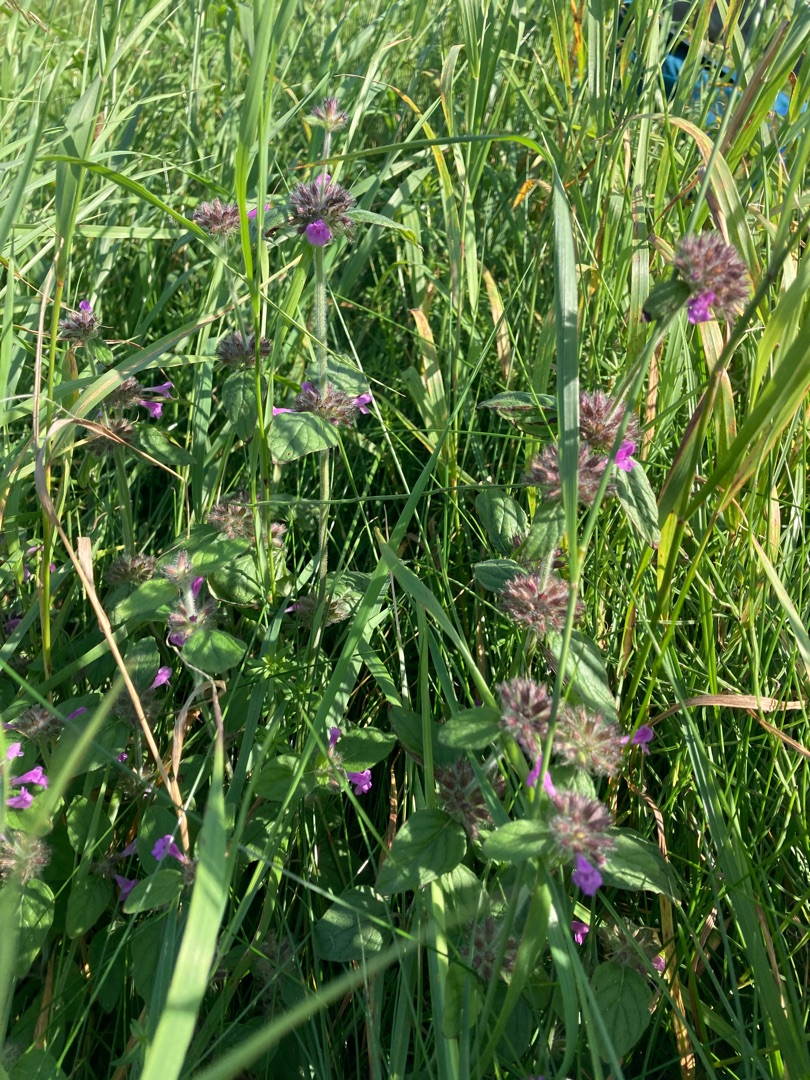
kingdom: Plantae
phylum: Tracheophyta
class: Magnoliopsida
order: Lamiales
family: Lamiaceae
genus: Clinopodium
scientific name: Clinopodium vulgare
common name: Kransbørste
